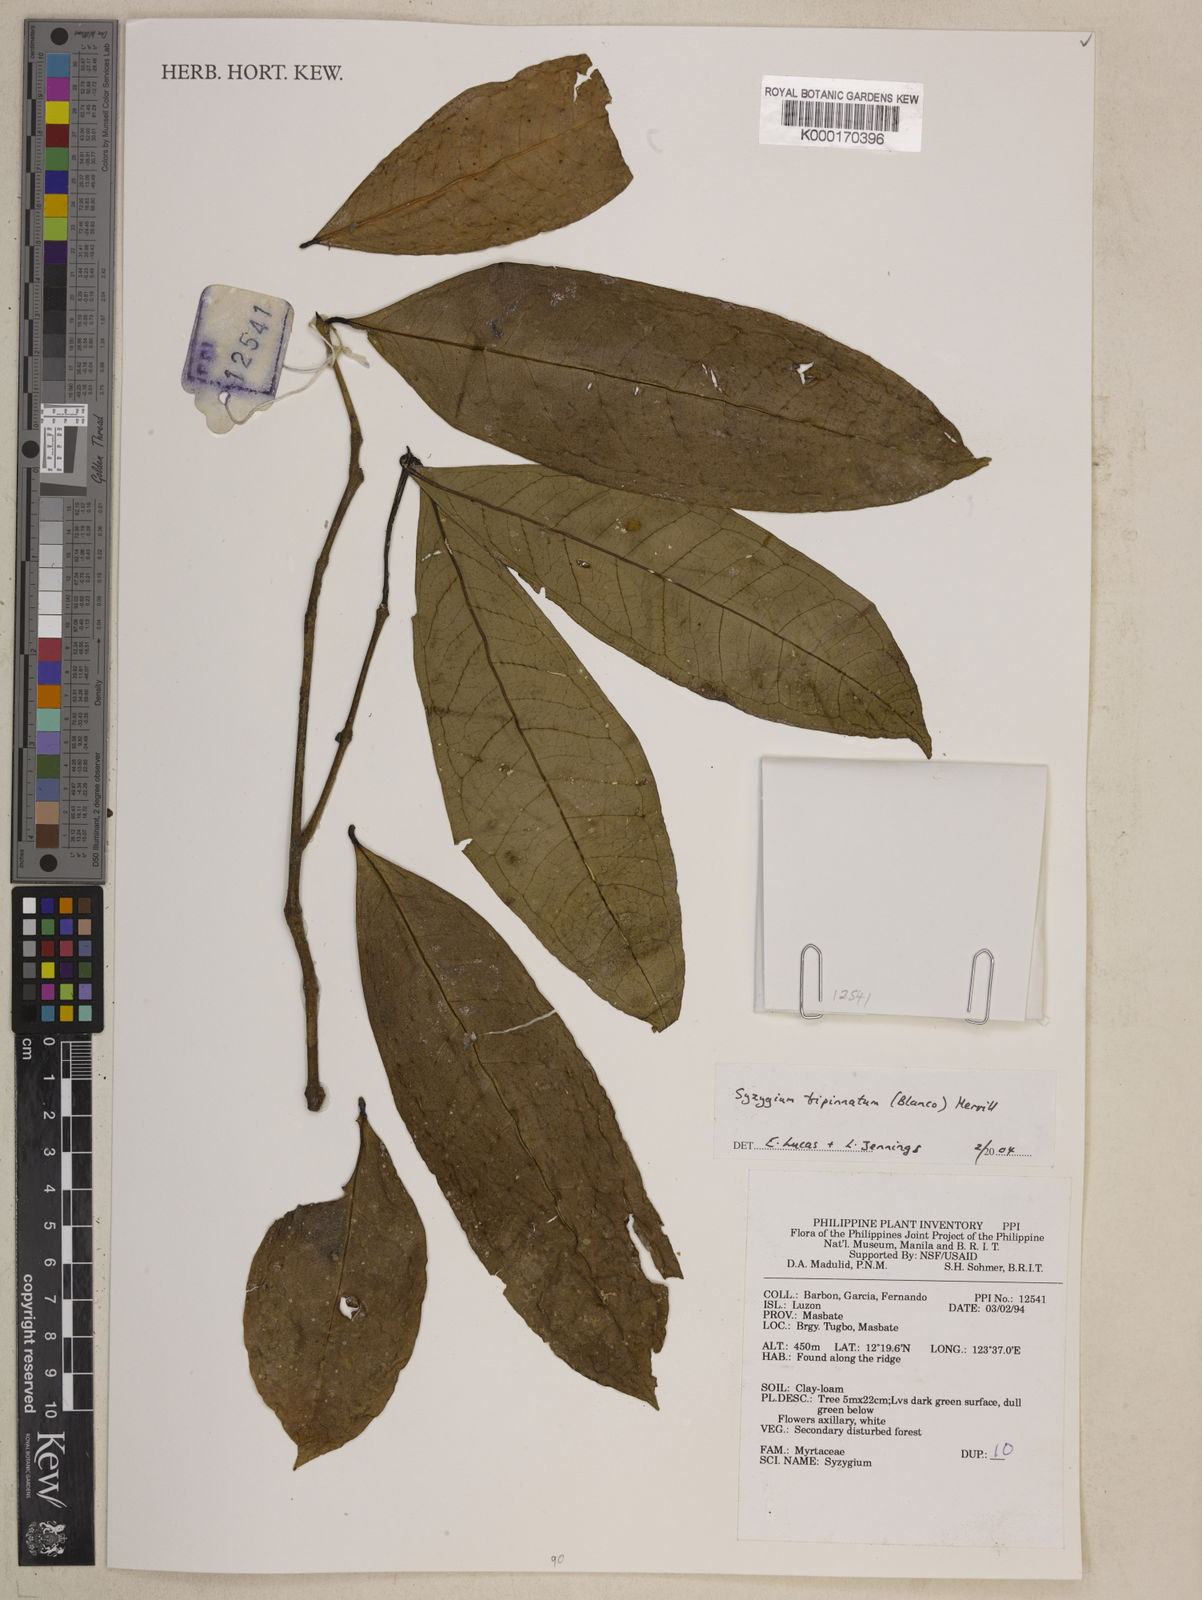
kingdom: Plantae
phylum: Tracheophyta
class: Magnoliopsida
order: Myrtales
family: Myrtaceae
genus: Syzygium
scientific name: Syzygium tripinnatum
